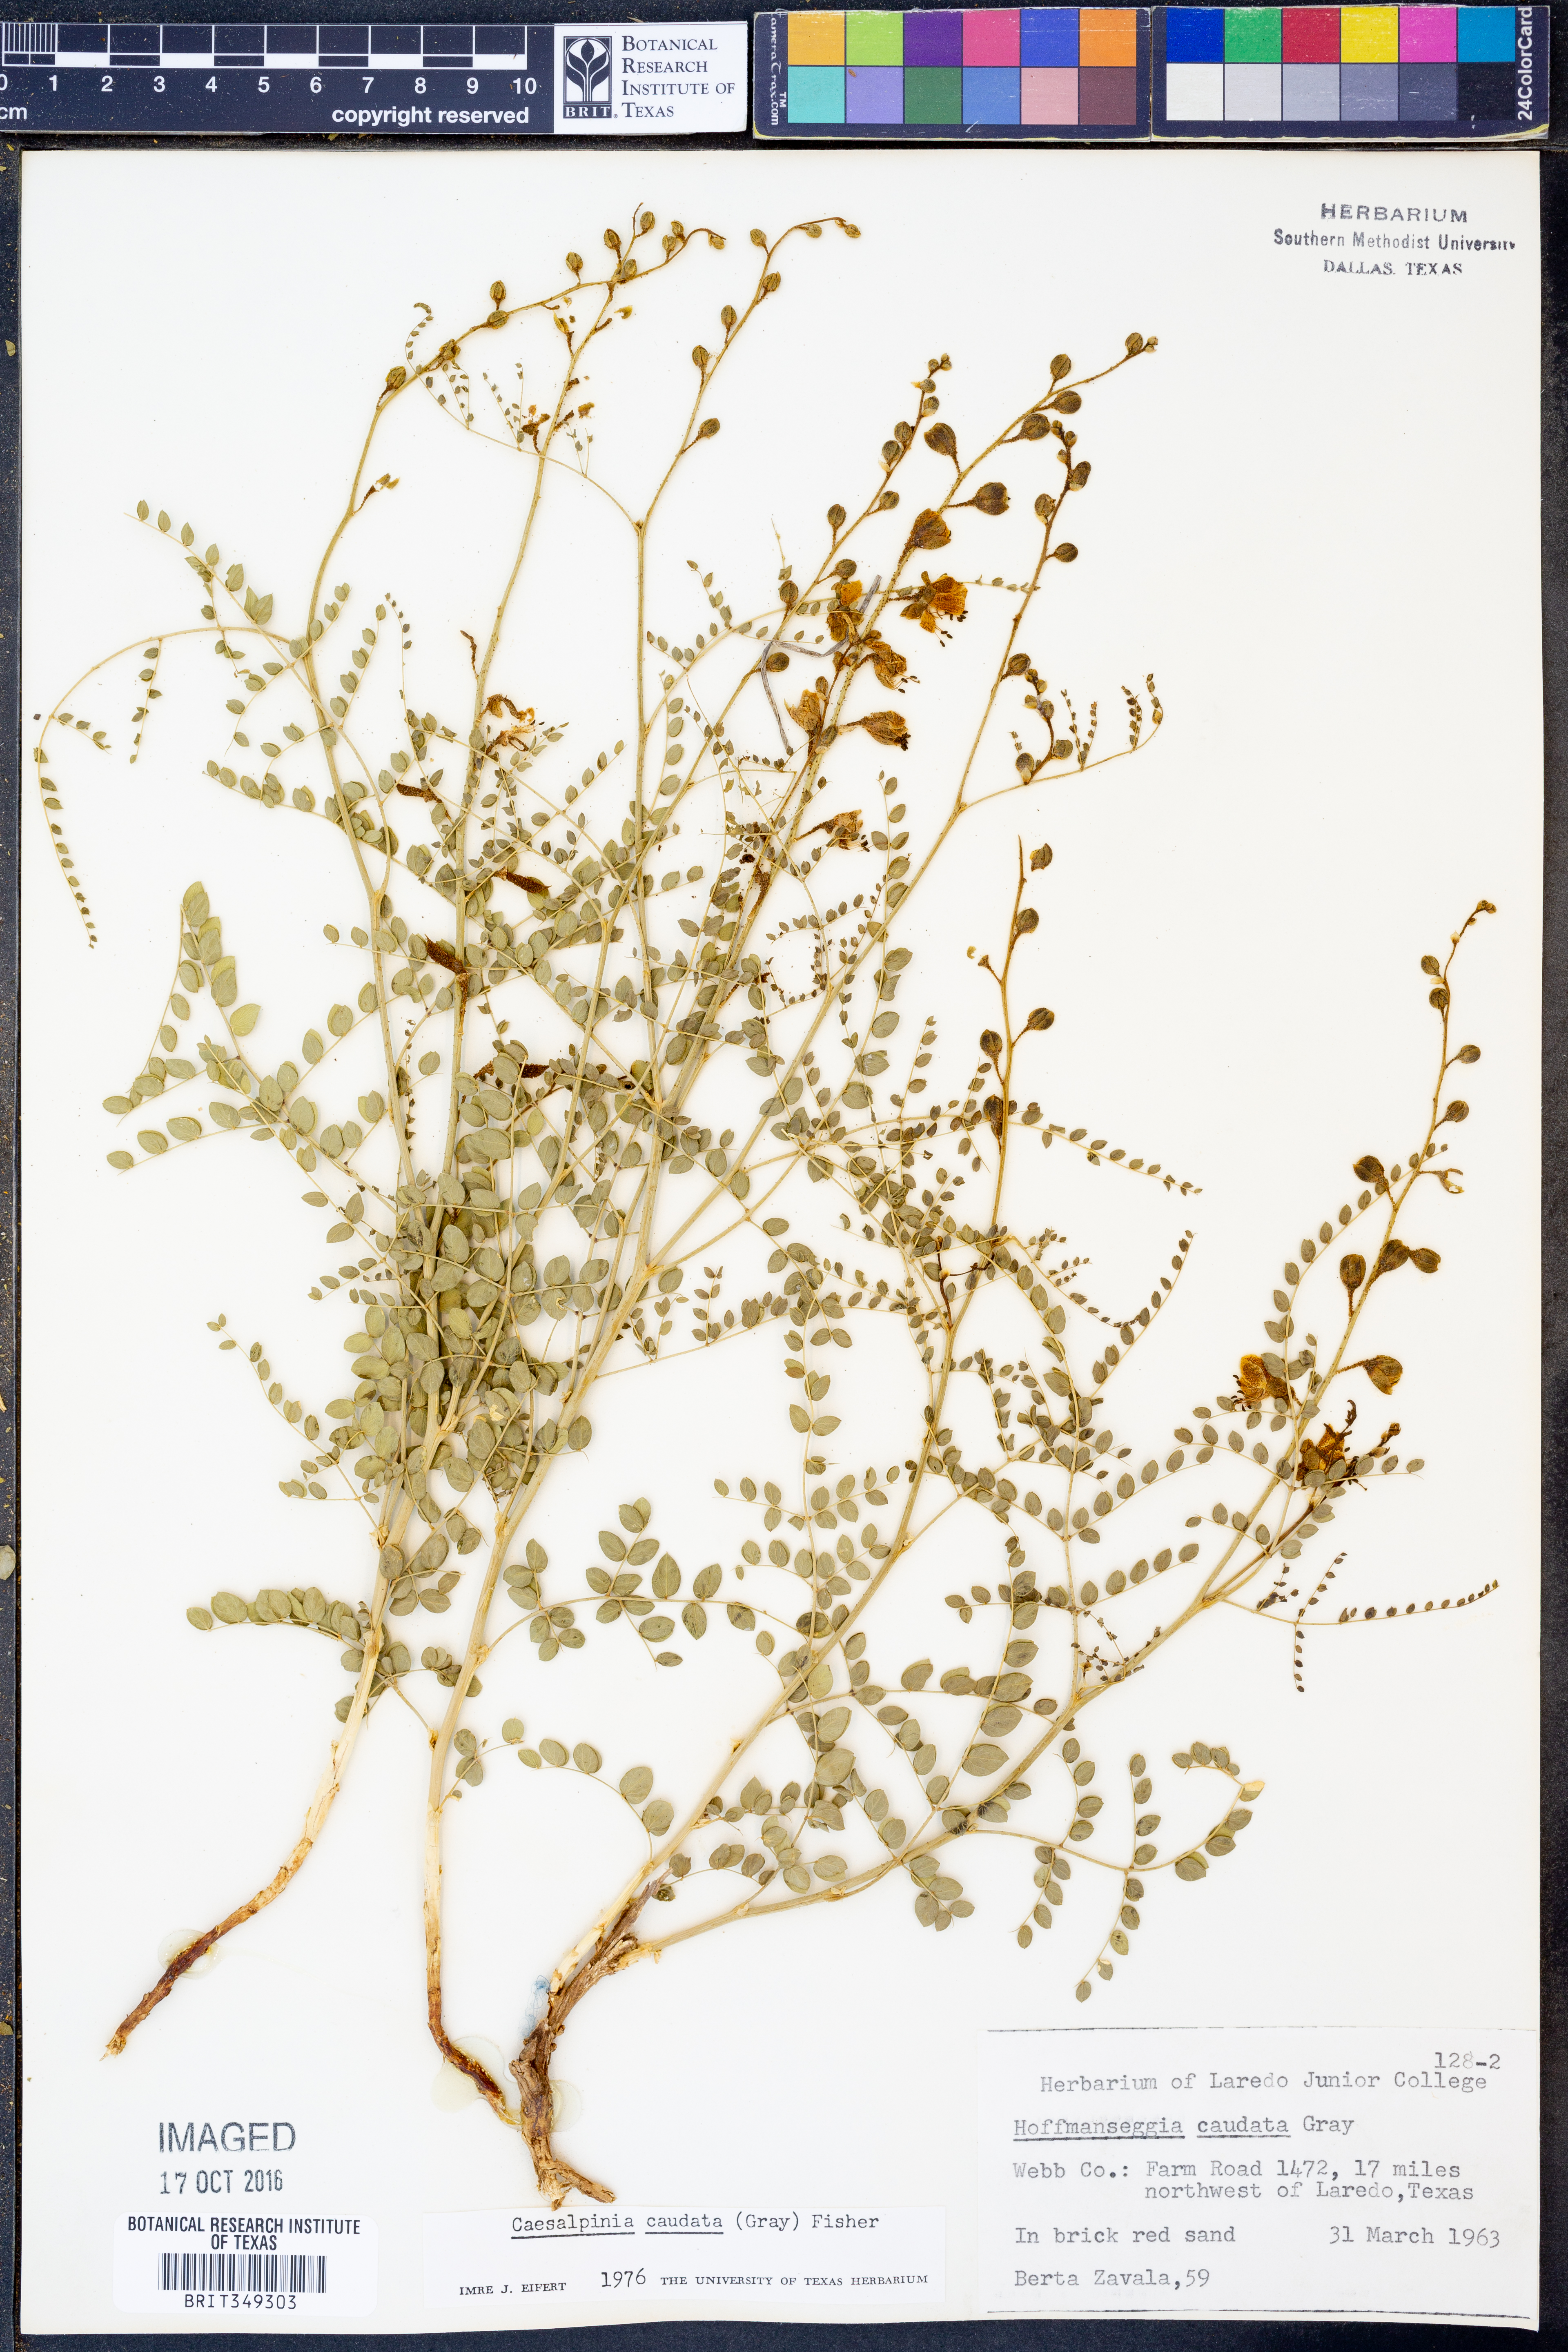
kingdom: Plantae
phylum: Tracheophyta
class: Magnoliopsida
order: Fabales
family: Fabaceae
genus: Erythrostemon
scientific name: Erythrostemon caudatus
